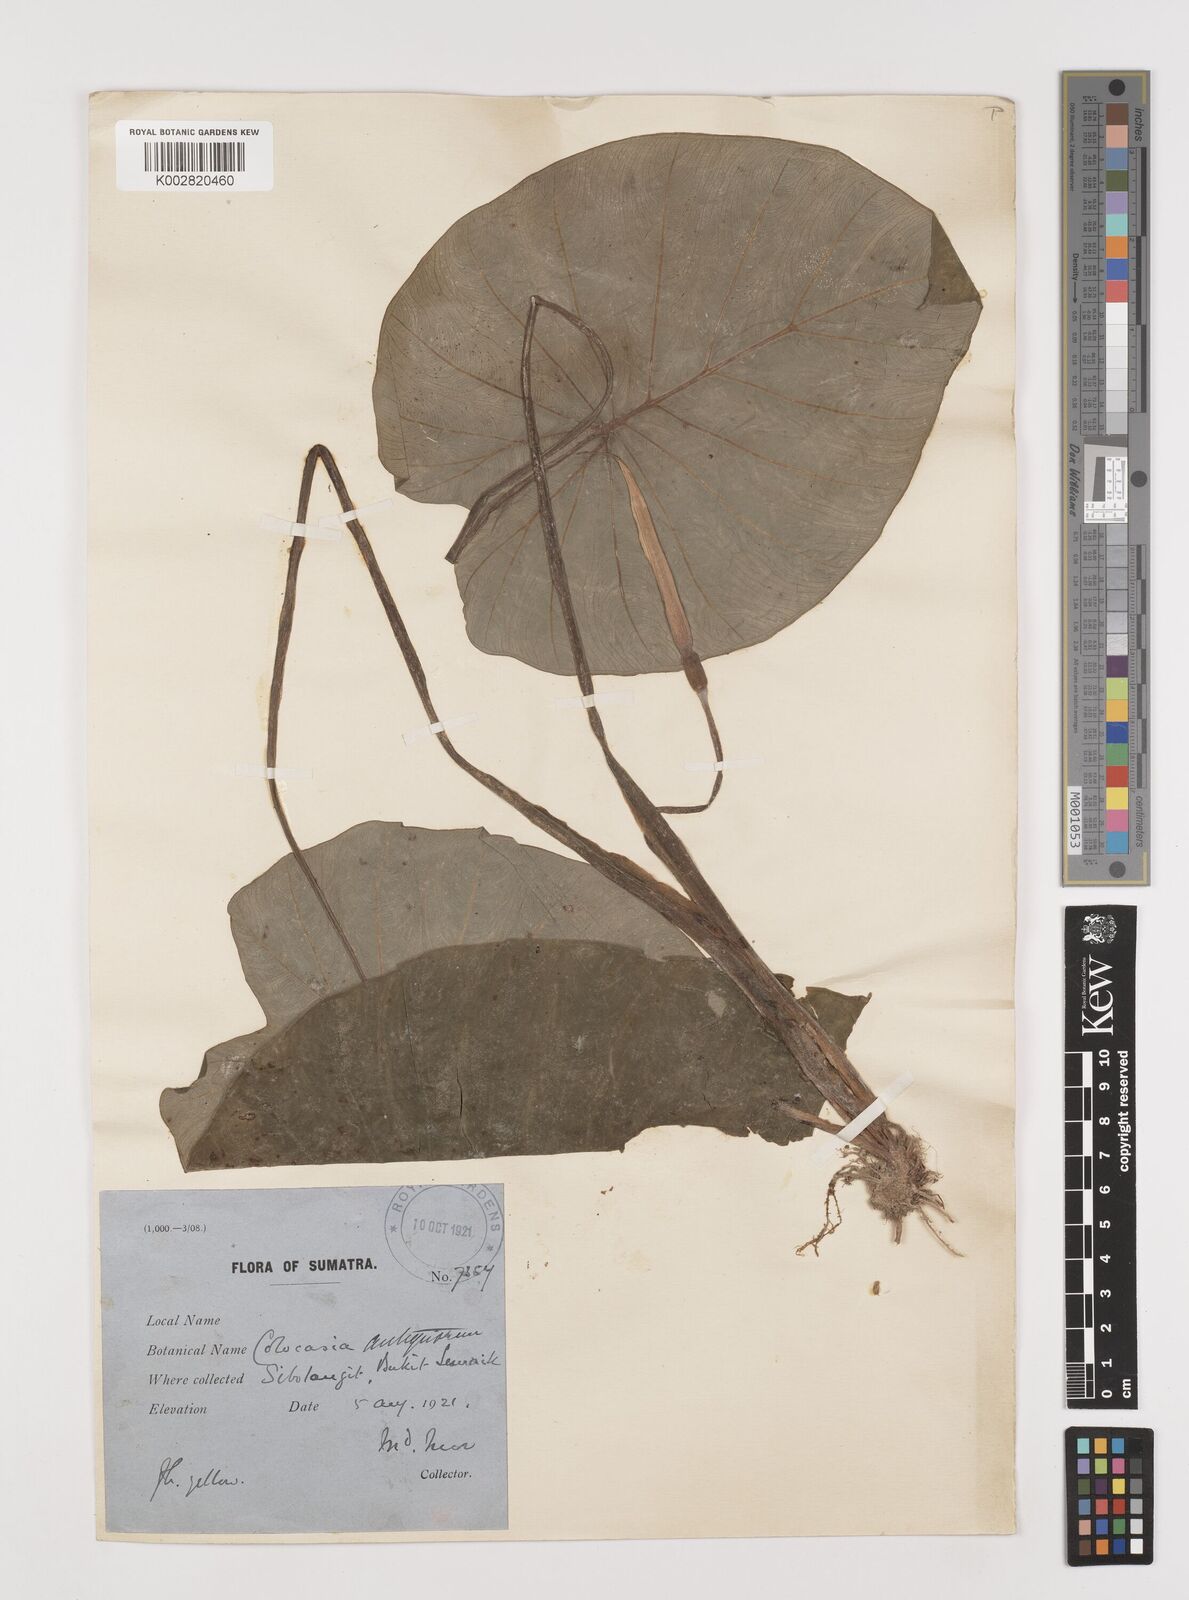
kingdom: Plantae
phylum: Tracheophyta
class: Liliopsida
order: Alismatales
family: Araceae
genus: Colocasia
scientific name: Colocasia esculenta
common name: Taro
